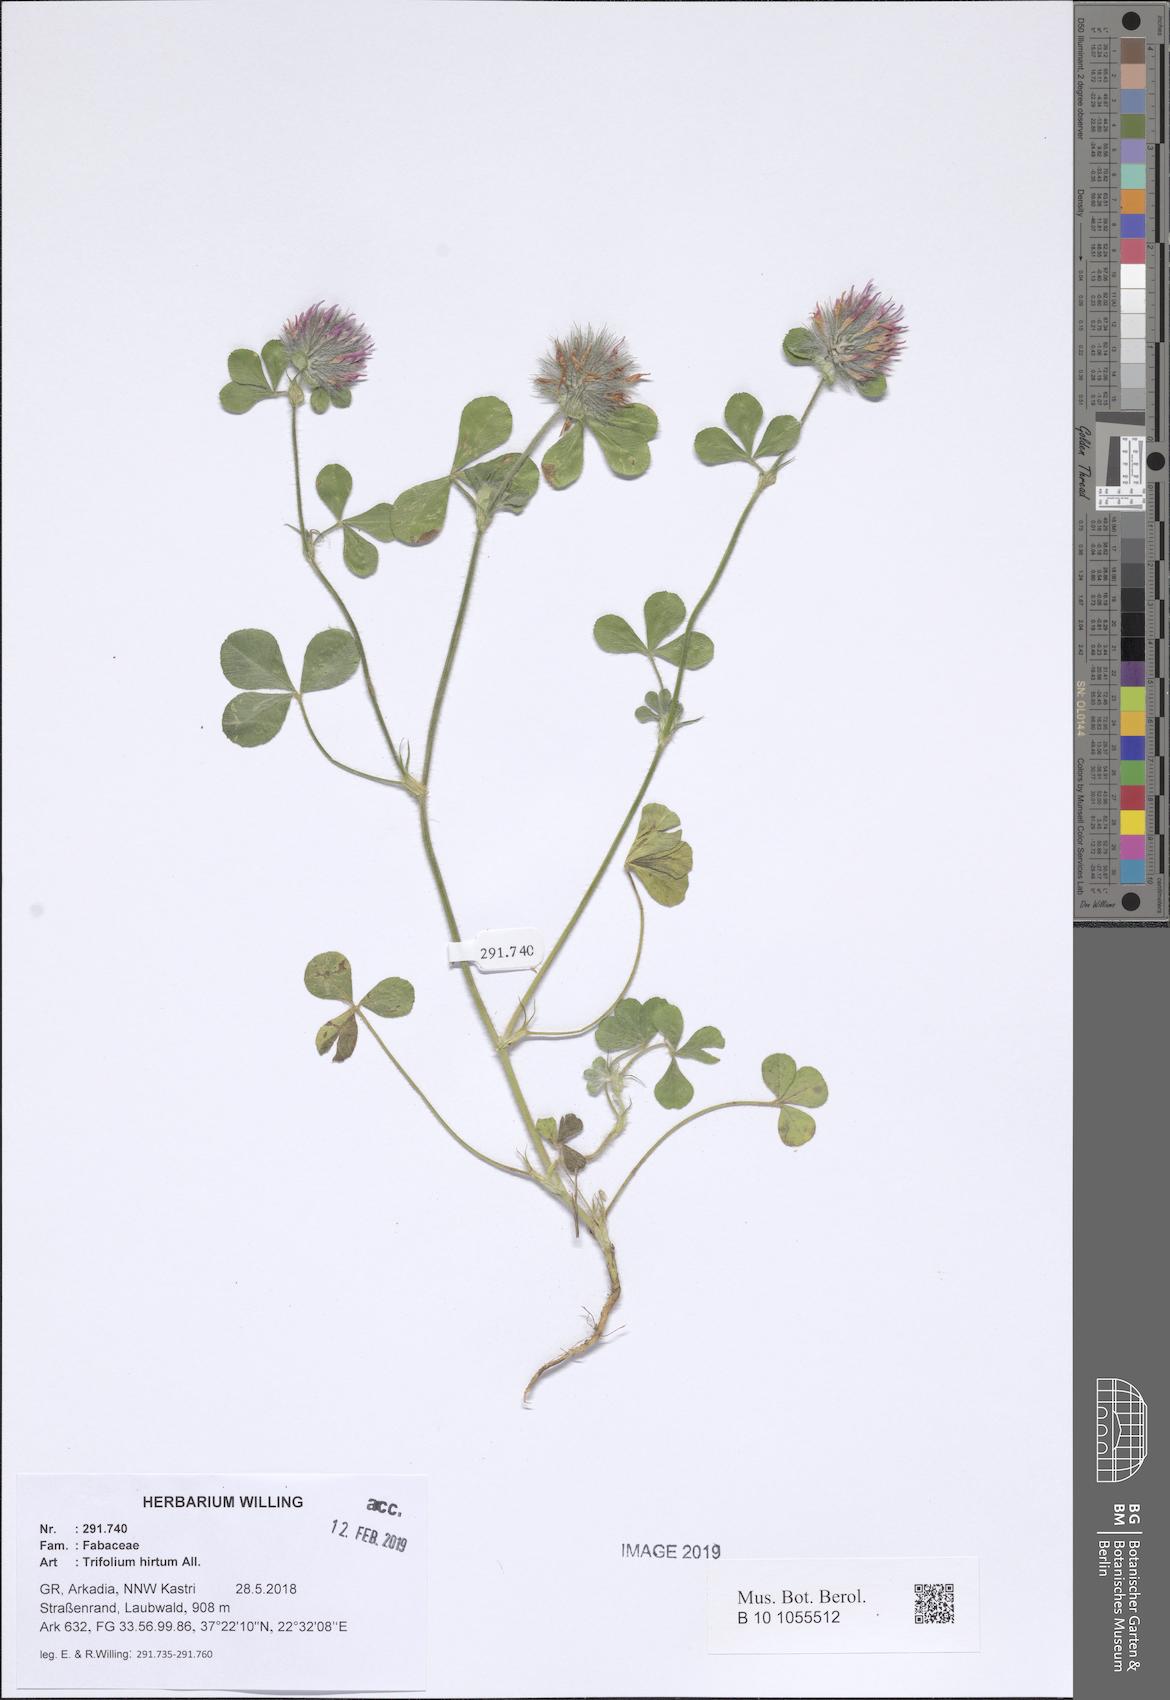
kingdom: Plantae
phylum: Tracheophyta
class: Magnoliopsida
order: Fabales
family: Fabaceae
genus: Trifolium
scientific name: Trifolium hirtum
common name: Rose clover
